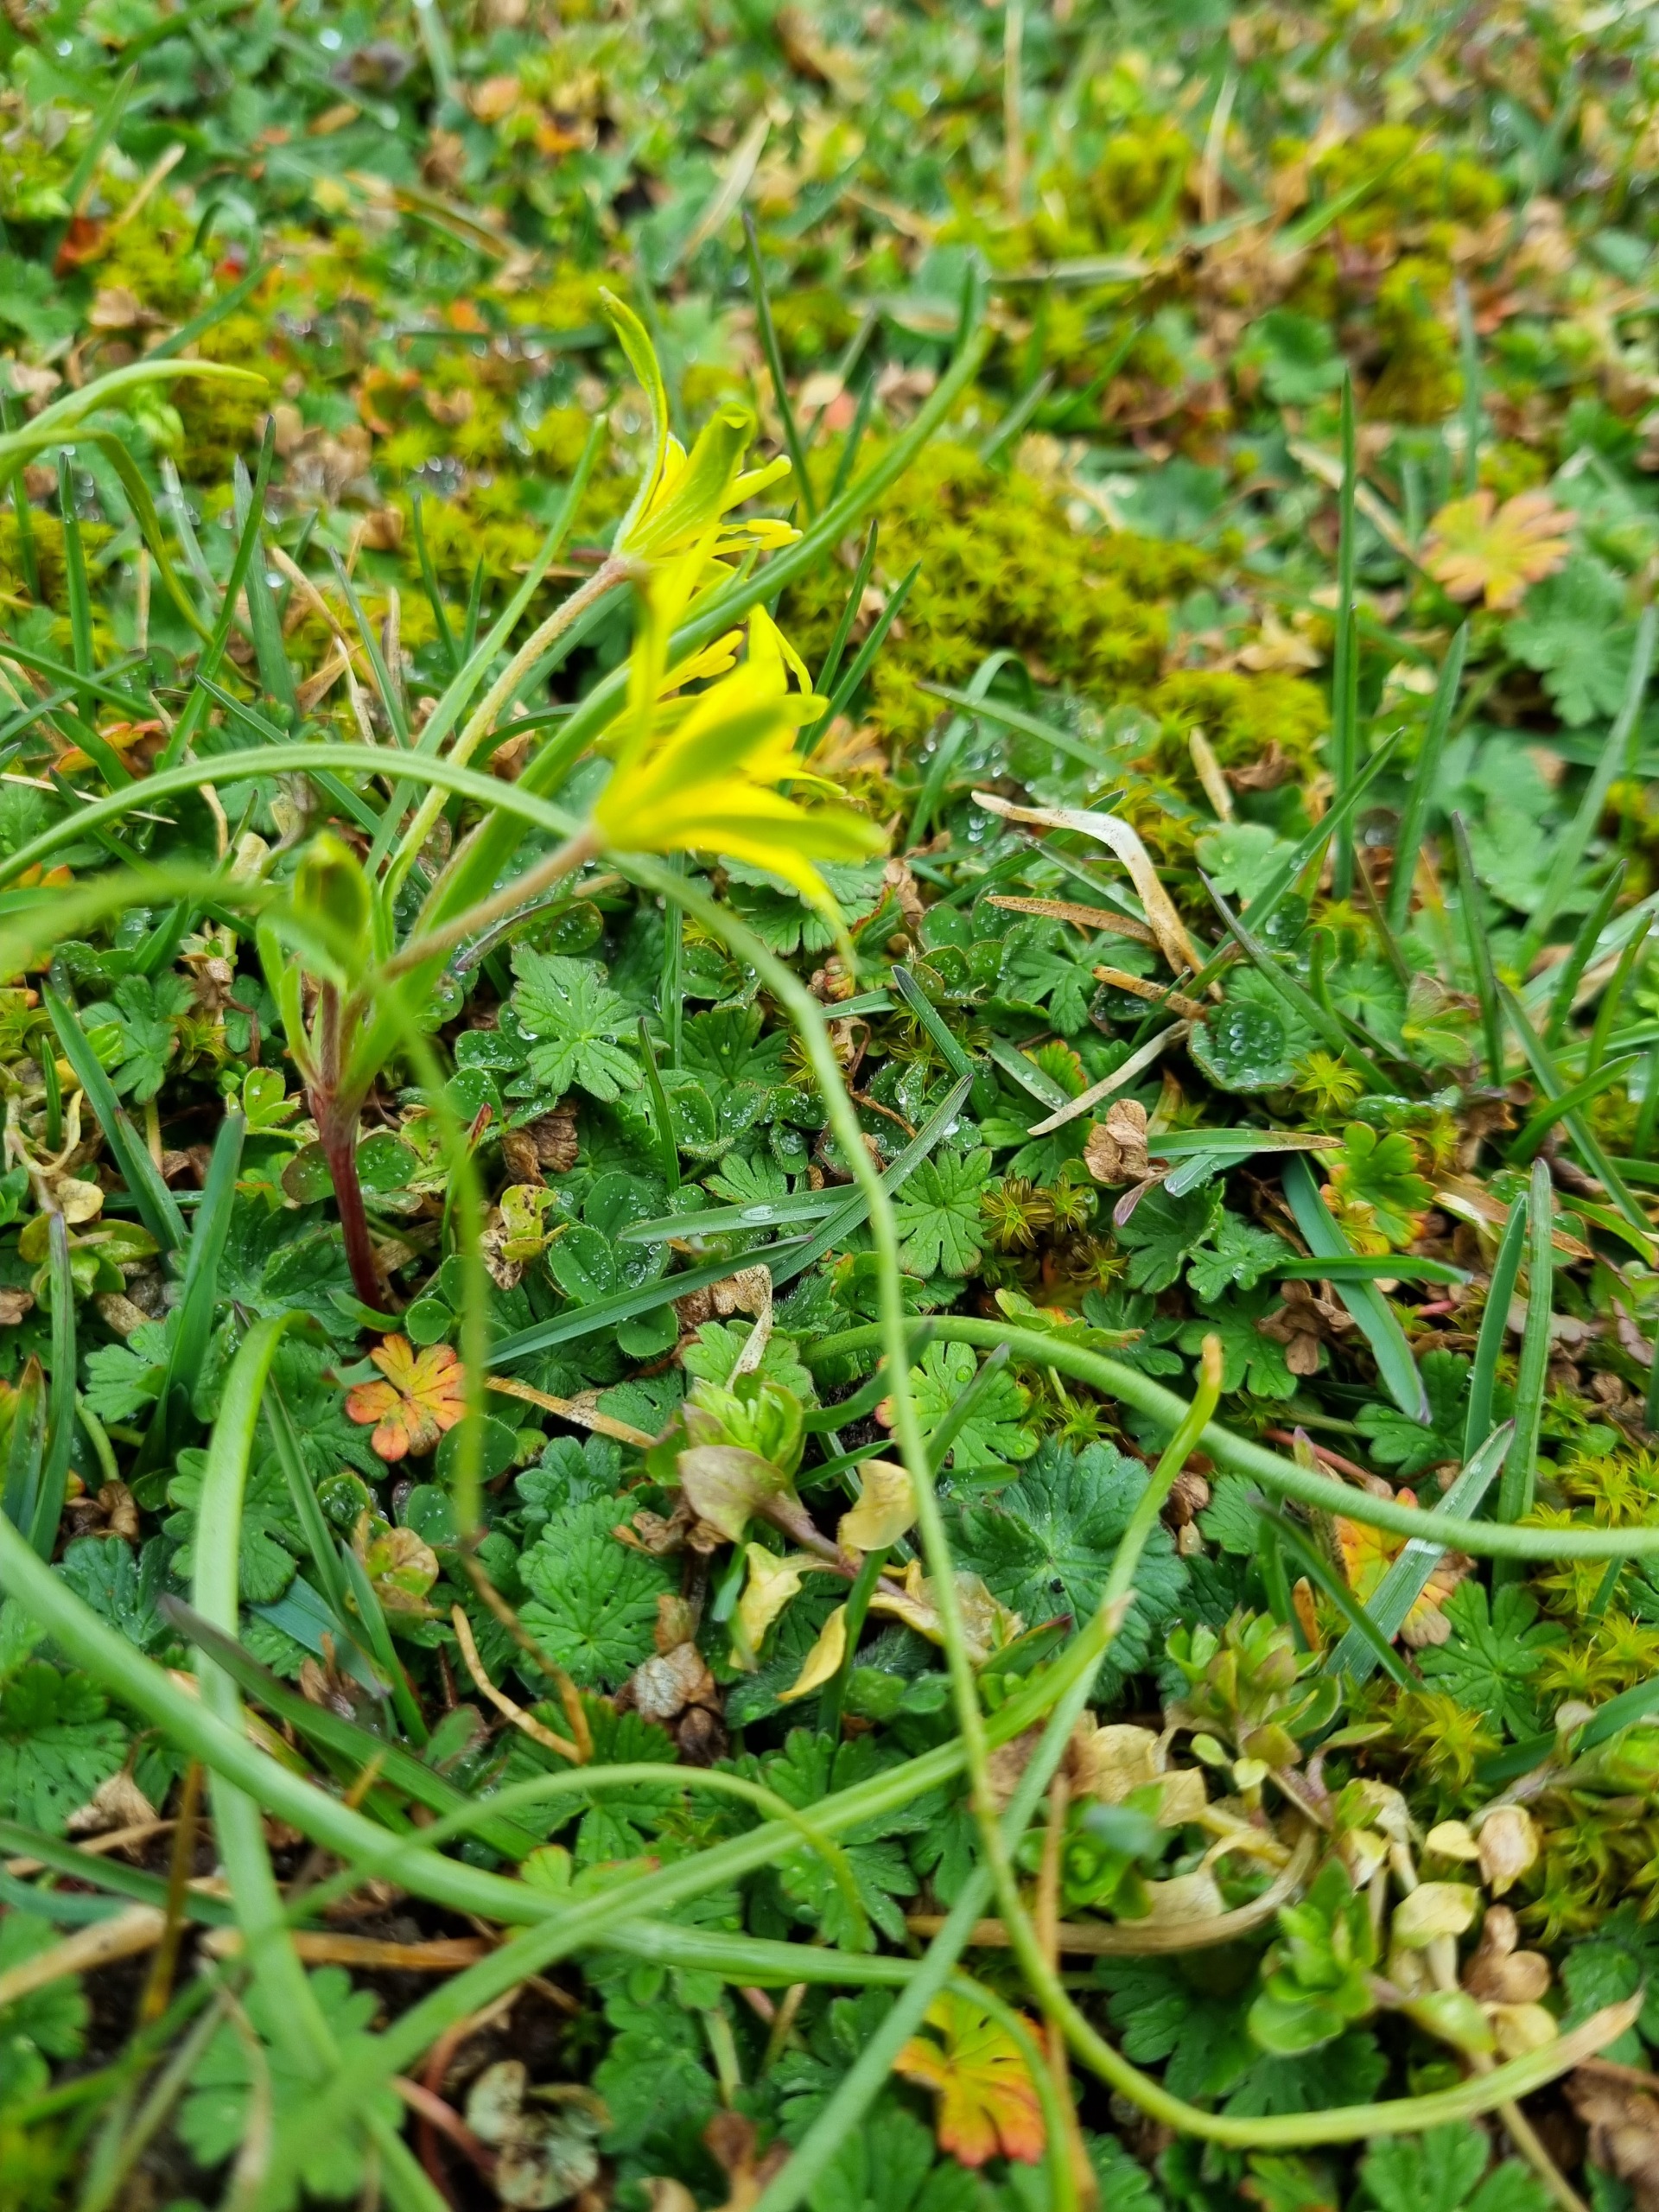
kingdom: Plantae
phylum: Tracheophyta
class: Liliopsida
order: Liliales
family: Liliaceae
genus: Gagea
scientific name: Gagea villosa
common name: Ager-guldstjerne
